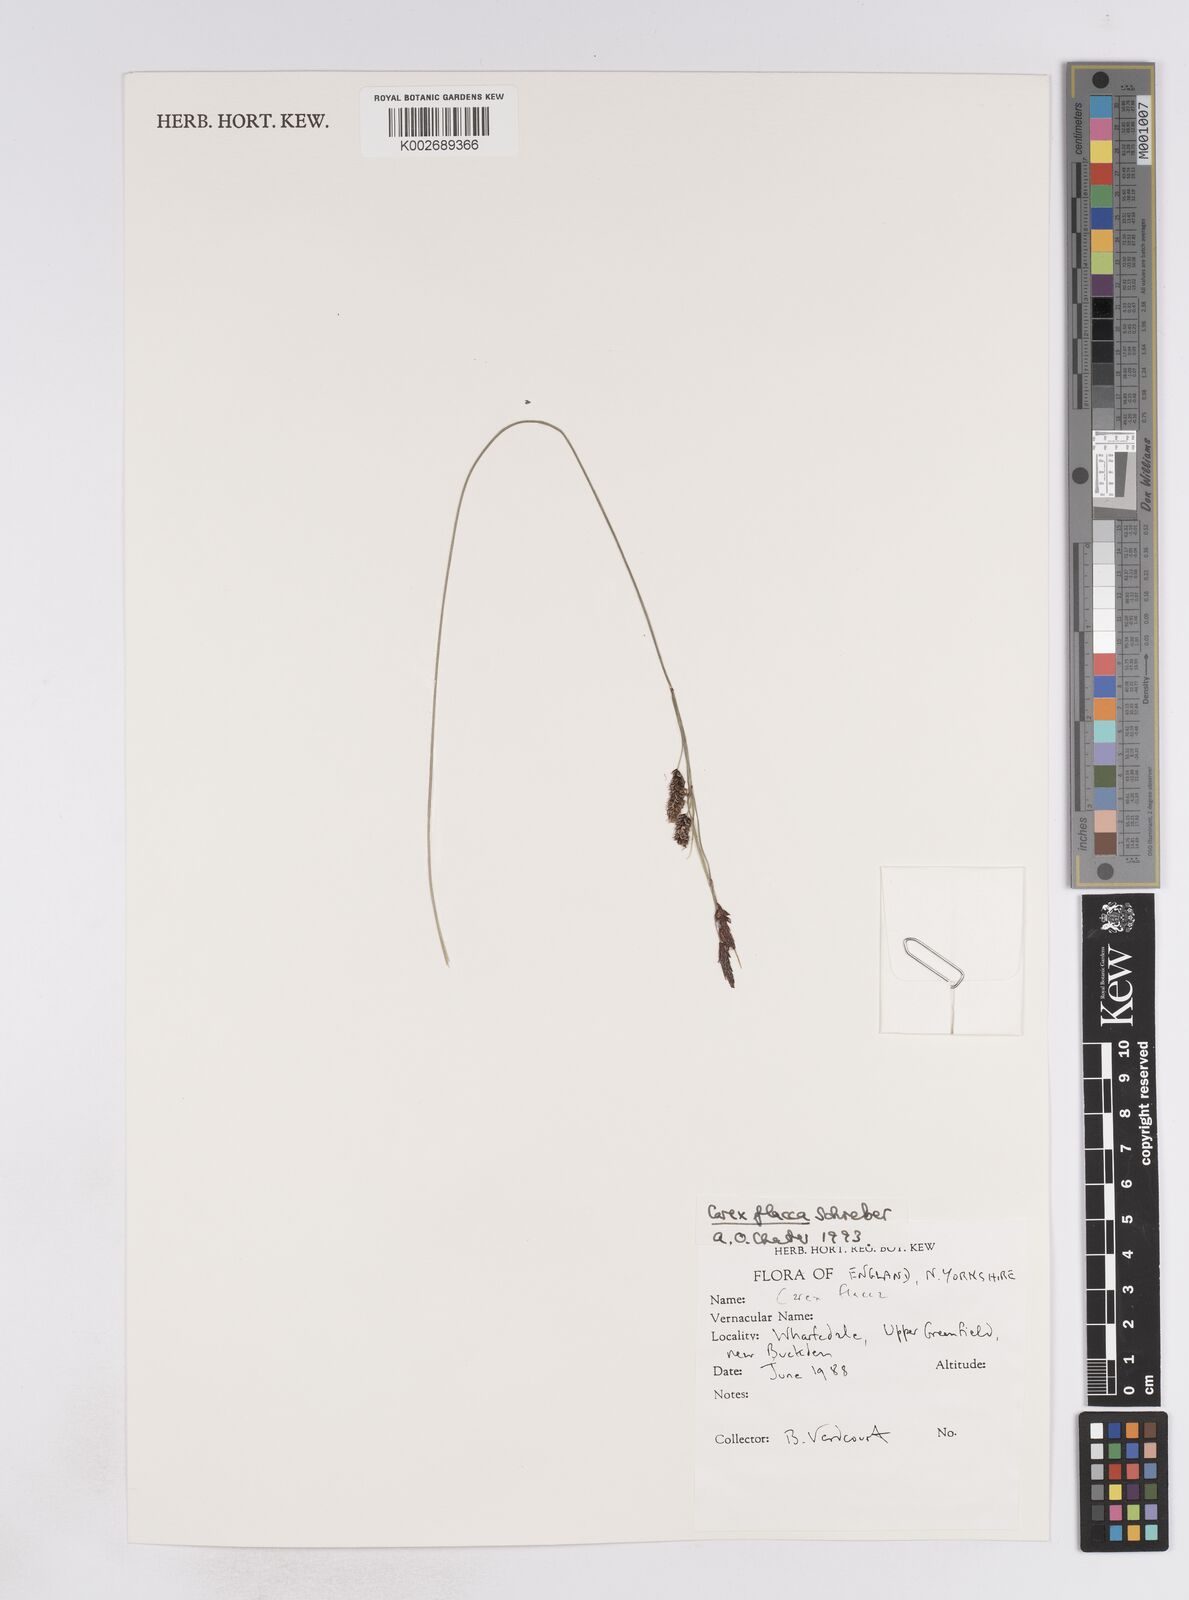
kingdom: Plantae
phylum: Tracheophyta
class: Liliopsida
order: Poales
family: Cyperaceae
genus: Carex
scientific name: Carex flacca
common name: Glaucous sedge
